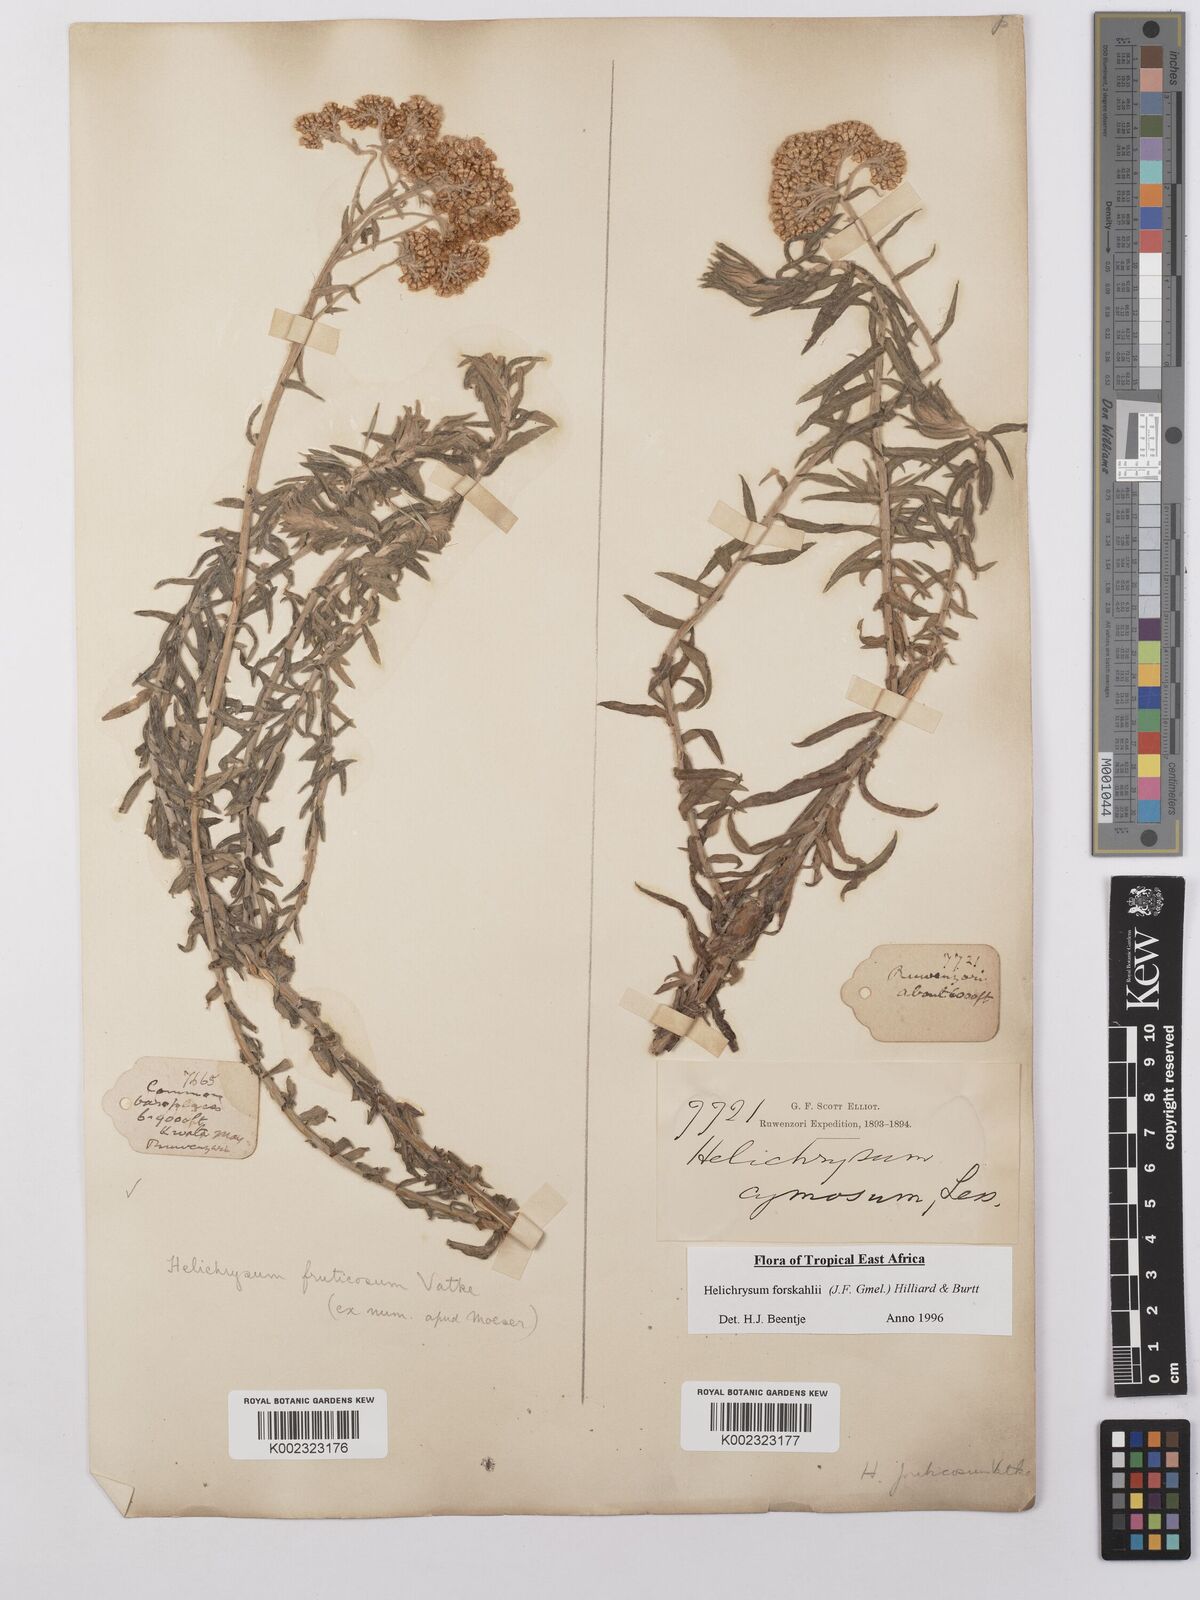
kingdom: Plantae
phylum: Tracheophyta
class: Magnoliopsida
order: Asterales
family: Asteraceae
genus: Helichrysum
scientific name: Helichrysum forskahlii
